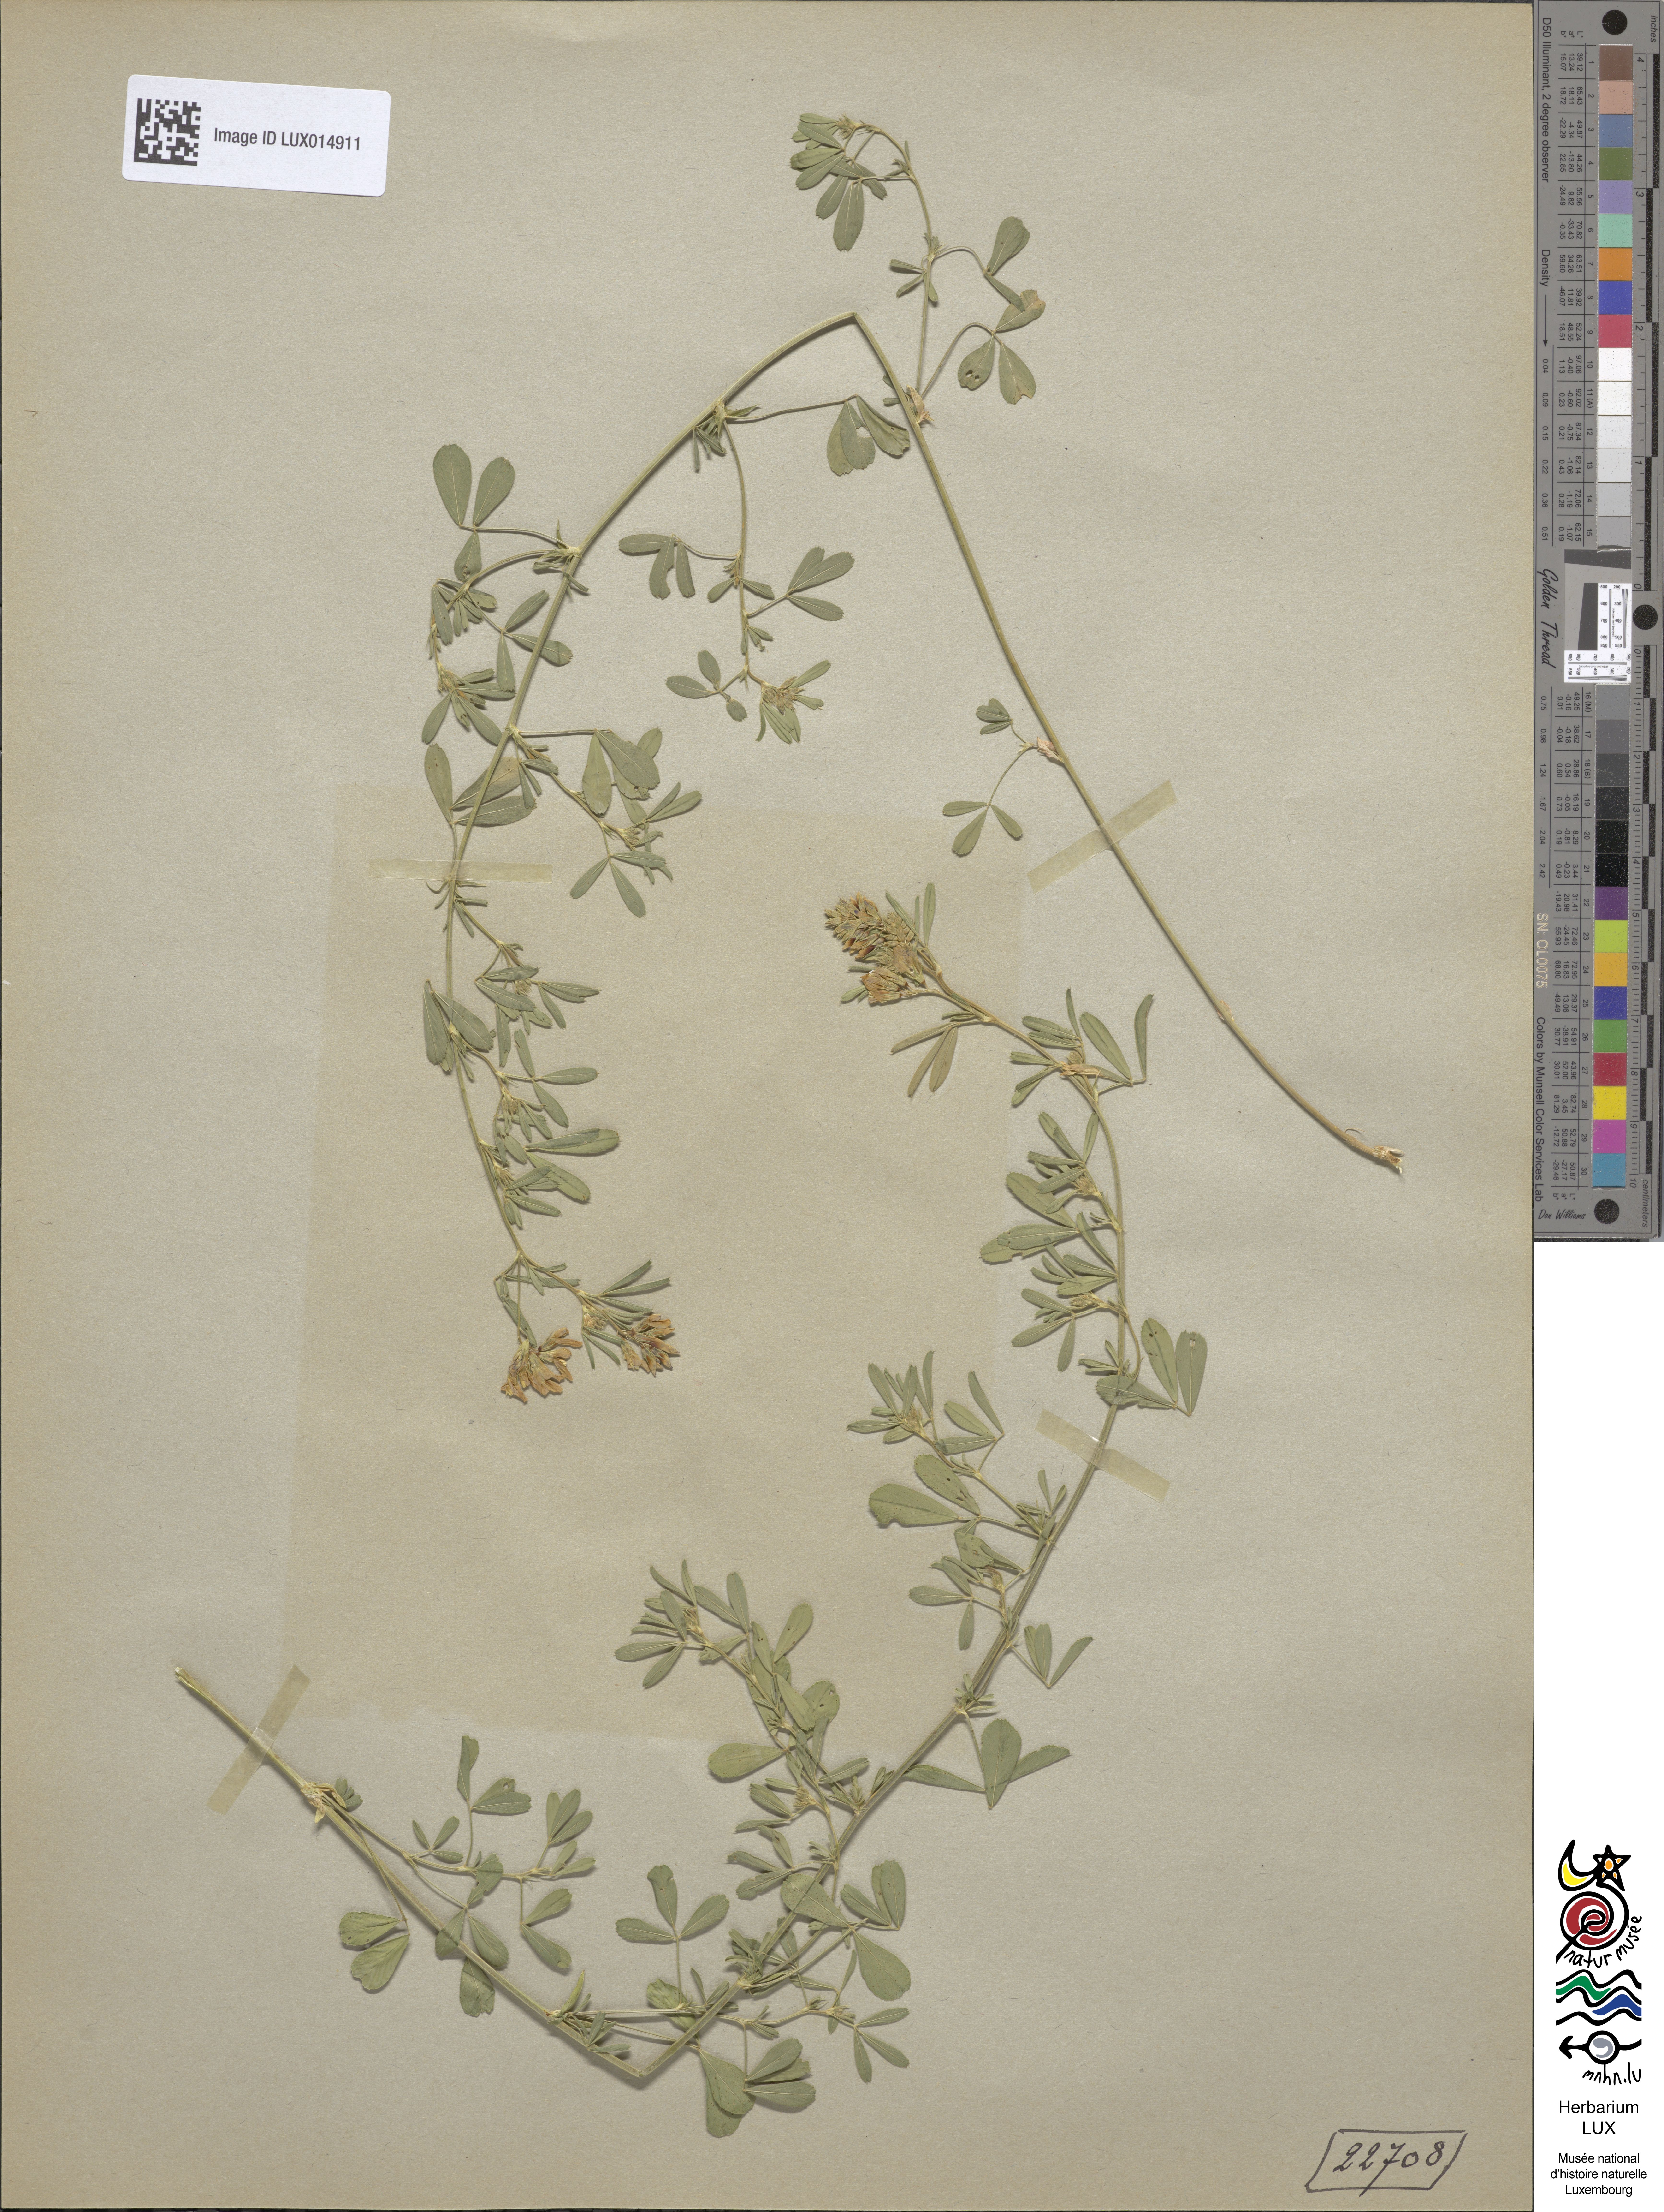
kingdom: Plantae
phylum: Tracheophyta
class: Magnoliopsida
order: Fabales
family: Fabaceae
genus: Medicago
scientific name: Medicago varia
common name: Sand lucerne
